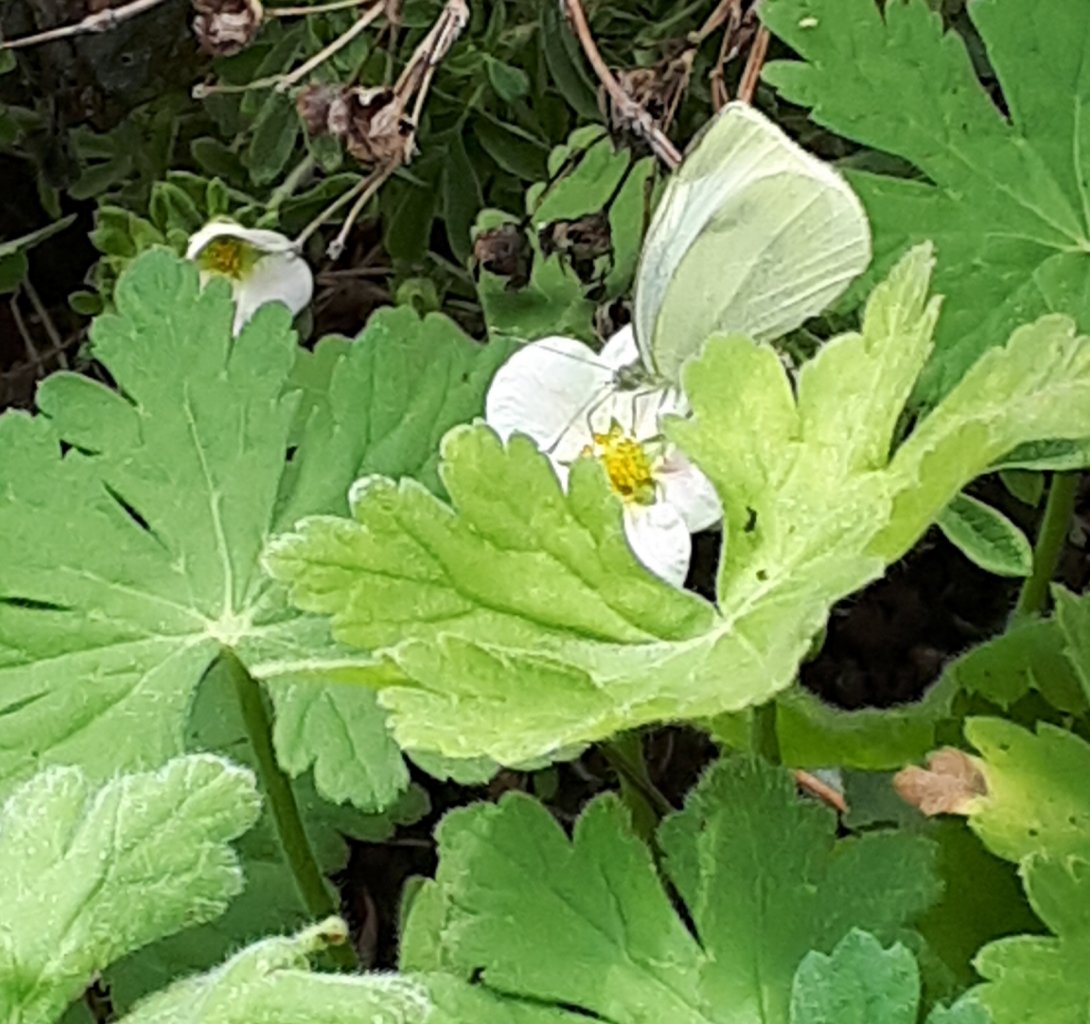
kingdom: Animalia
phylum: Arthropoda
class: Insecta
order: Lepidoptera
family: Pieridae
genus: Pieris
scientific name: Pieris rapae
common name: Cabbage White
